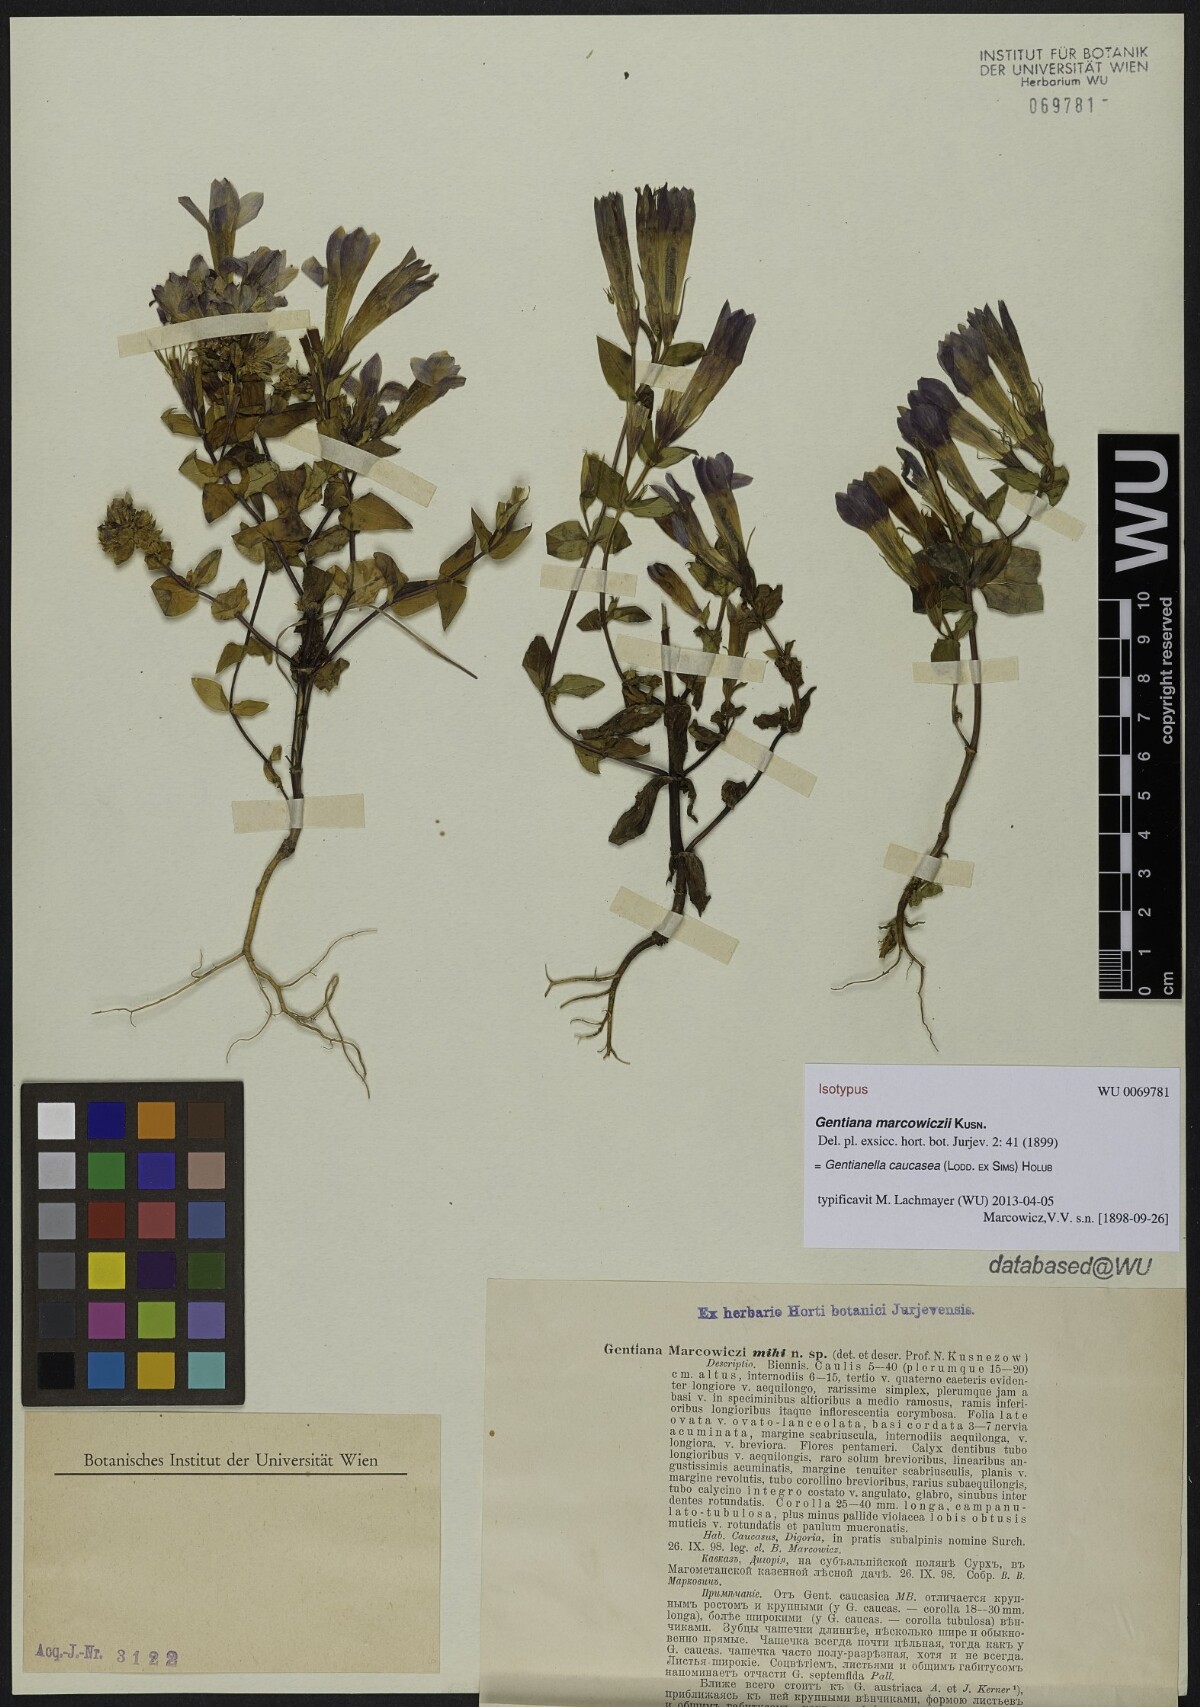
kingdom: Plantae
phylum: Tracheophyta
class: Magnoliopsida
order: Gentianales
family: Gentianaceae
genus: Gentianella
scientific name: Gentianella caucasea
